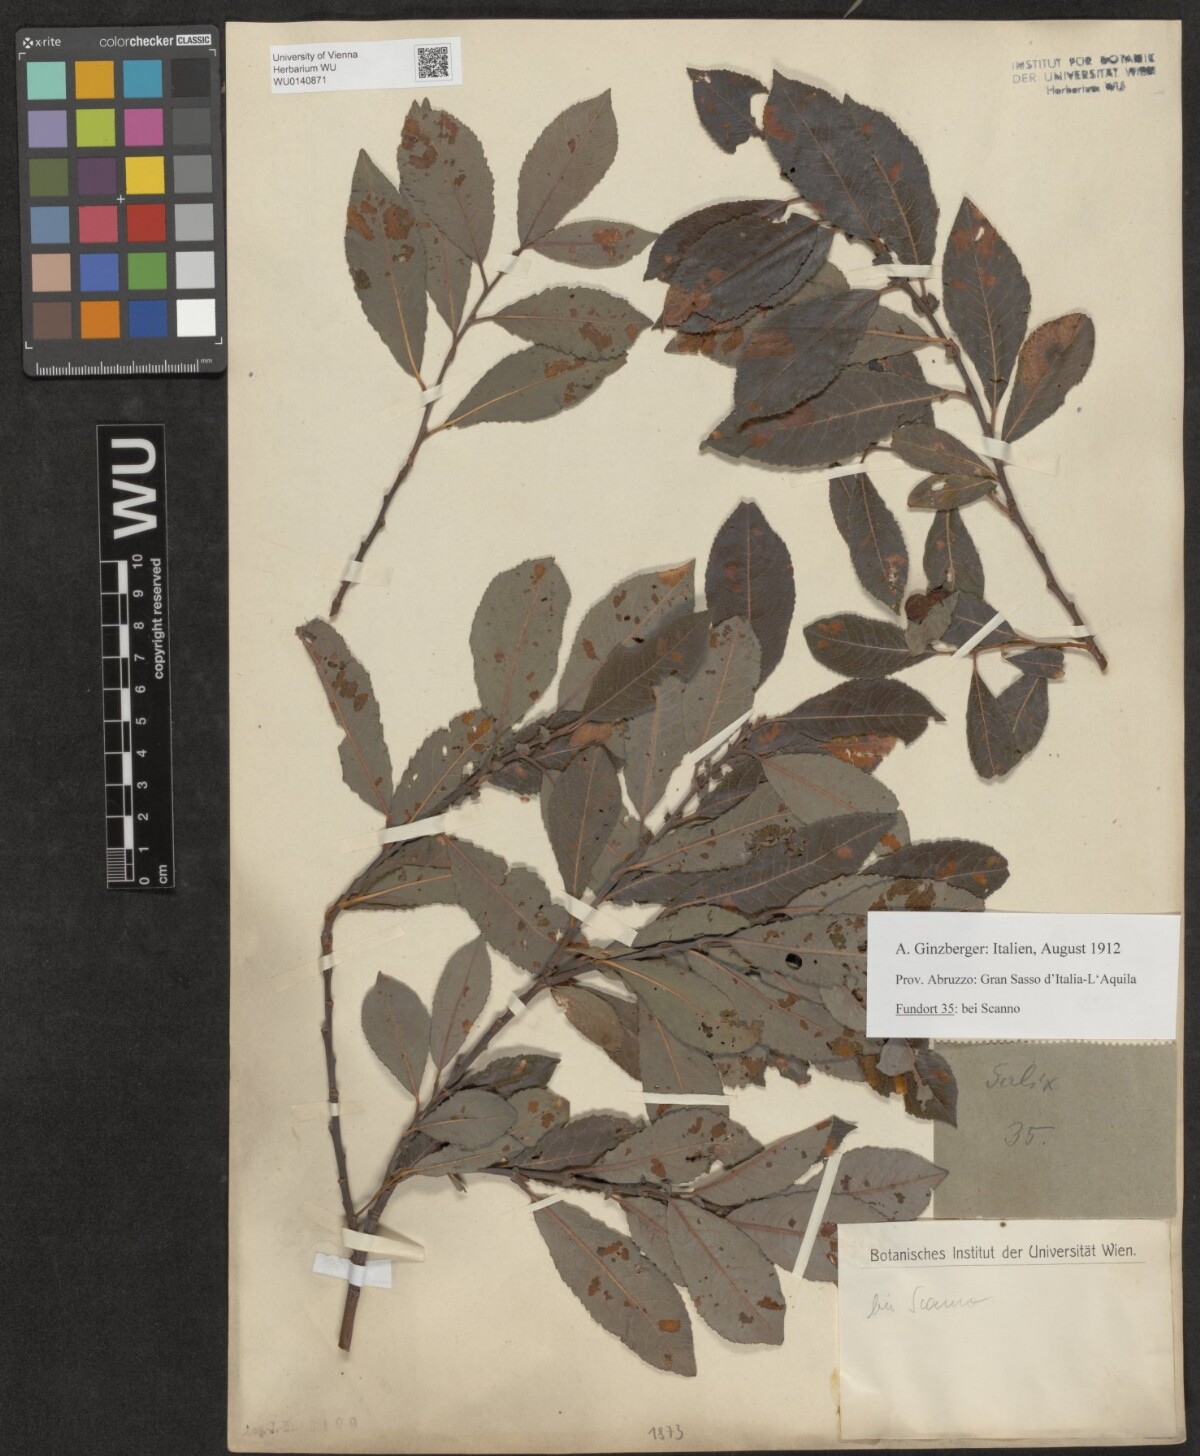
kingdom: Plantae
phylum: Tracheophyta
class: Magnoliopsida
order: Malpighiales
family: Salicaceae
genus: Salix
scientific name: Salix
